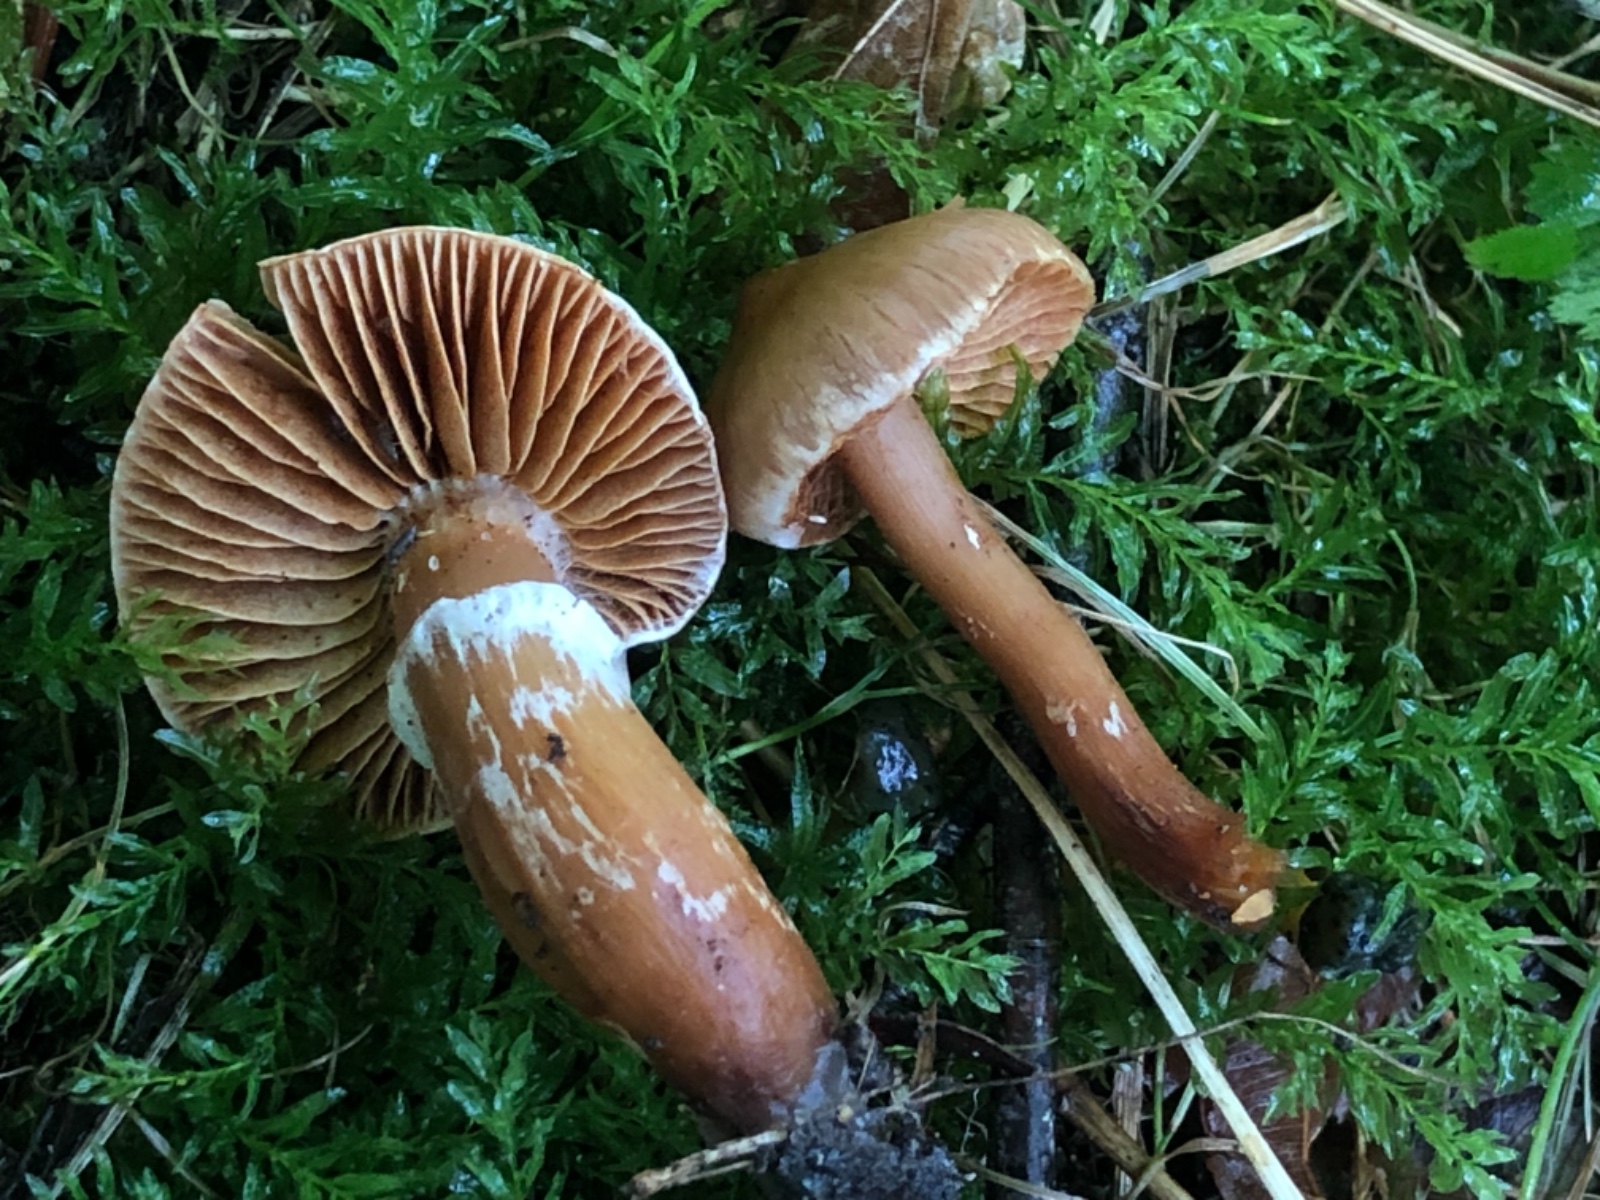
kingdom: Fungi
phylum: Basidiomycota
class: Agaricomycetes
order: Agaricales
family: Cortinariaceae
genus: Cortinarius
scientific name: Cortinarius hinnuleus
